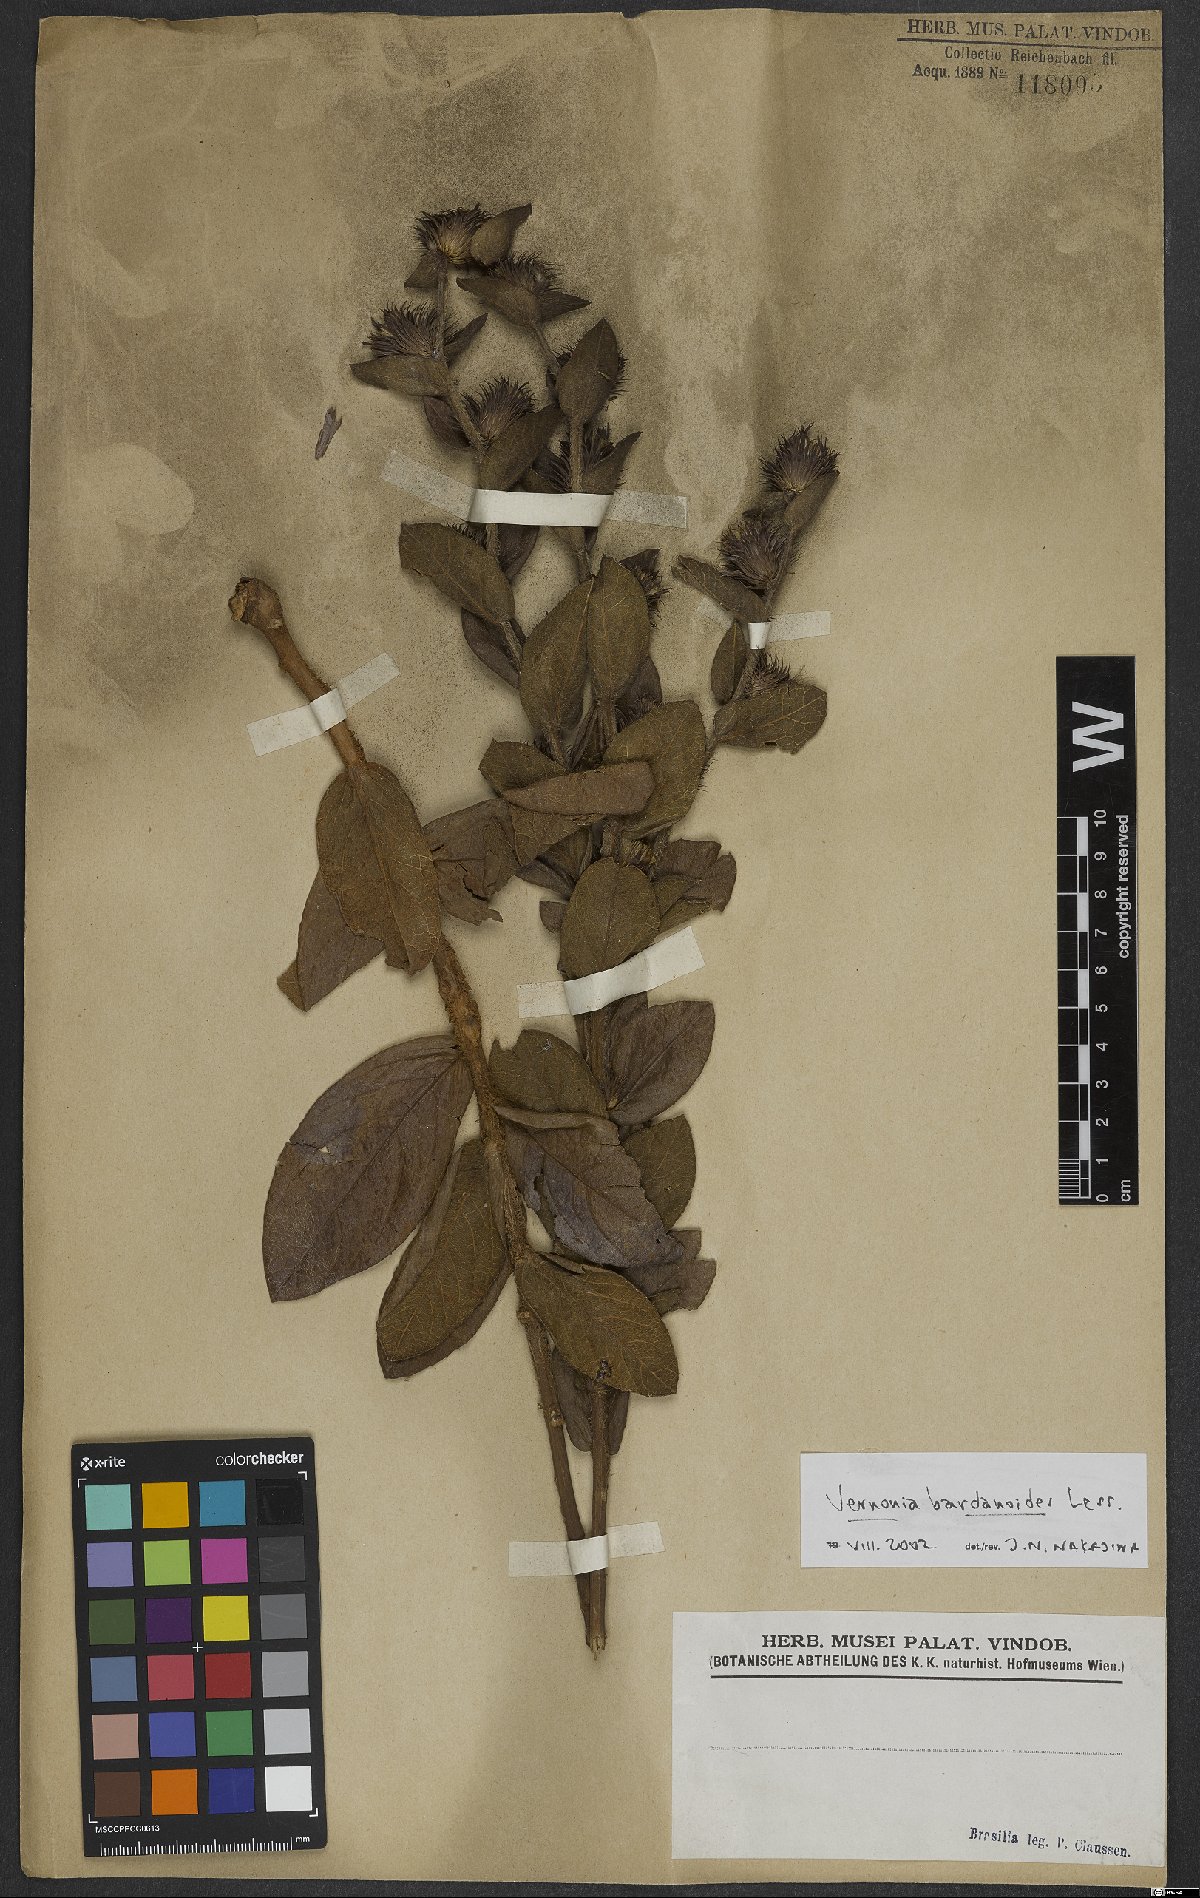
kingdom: Plantae
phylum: Tracheophyta
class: Magnoliopsida
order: Asterales
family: Asteraceae
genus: Lessingianthus
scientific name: Lessingianthus bardanioides
